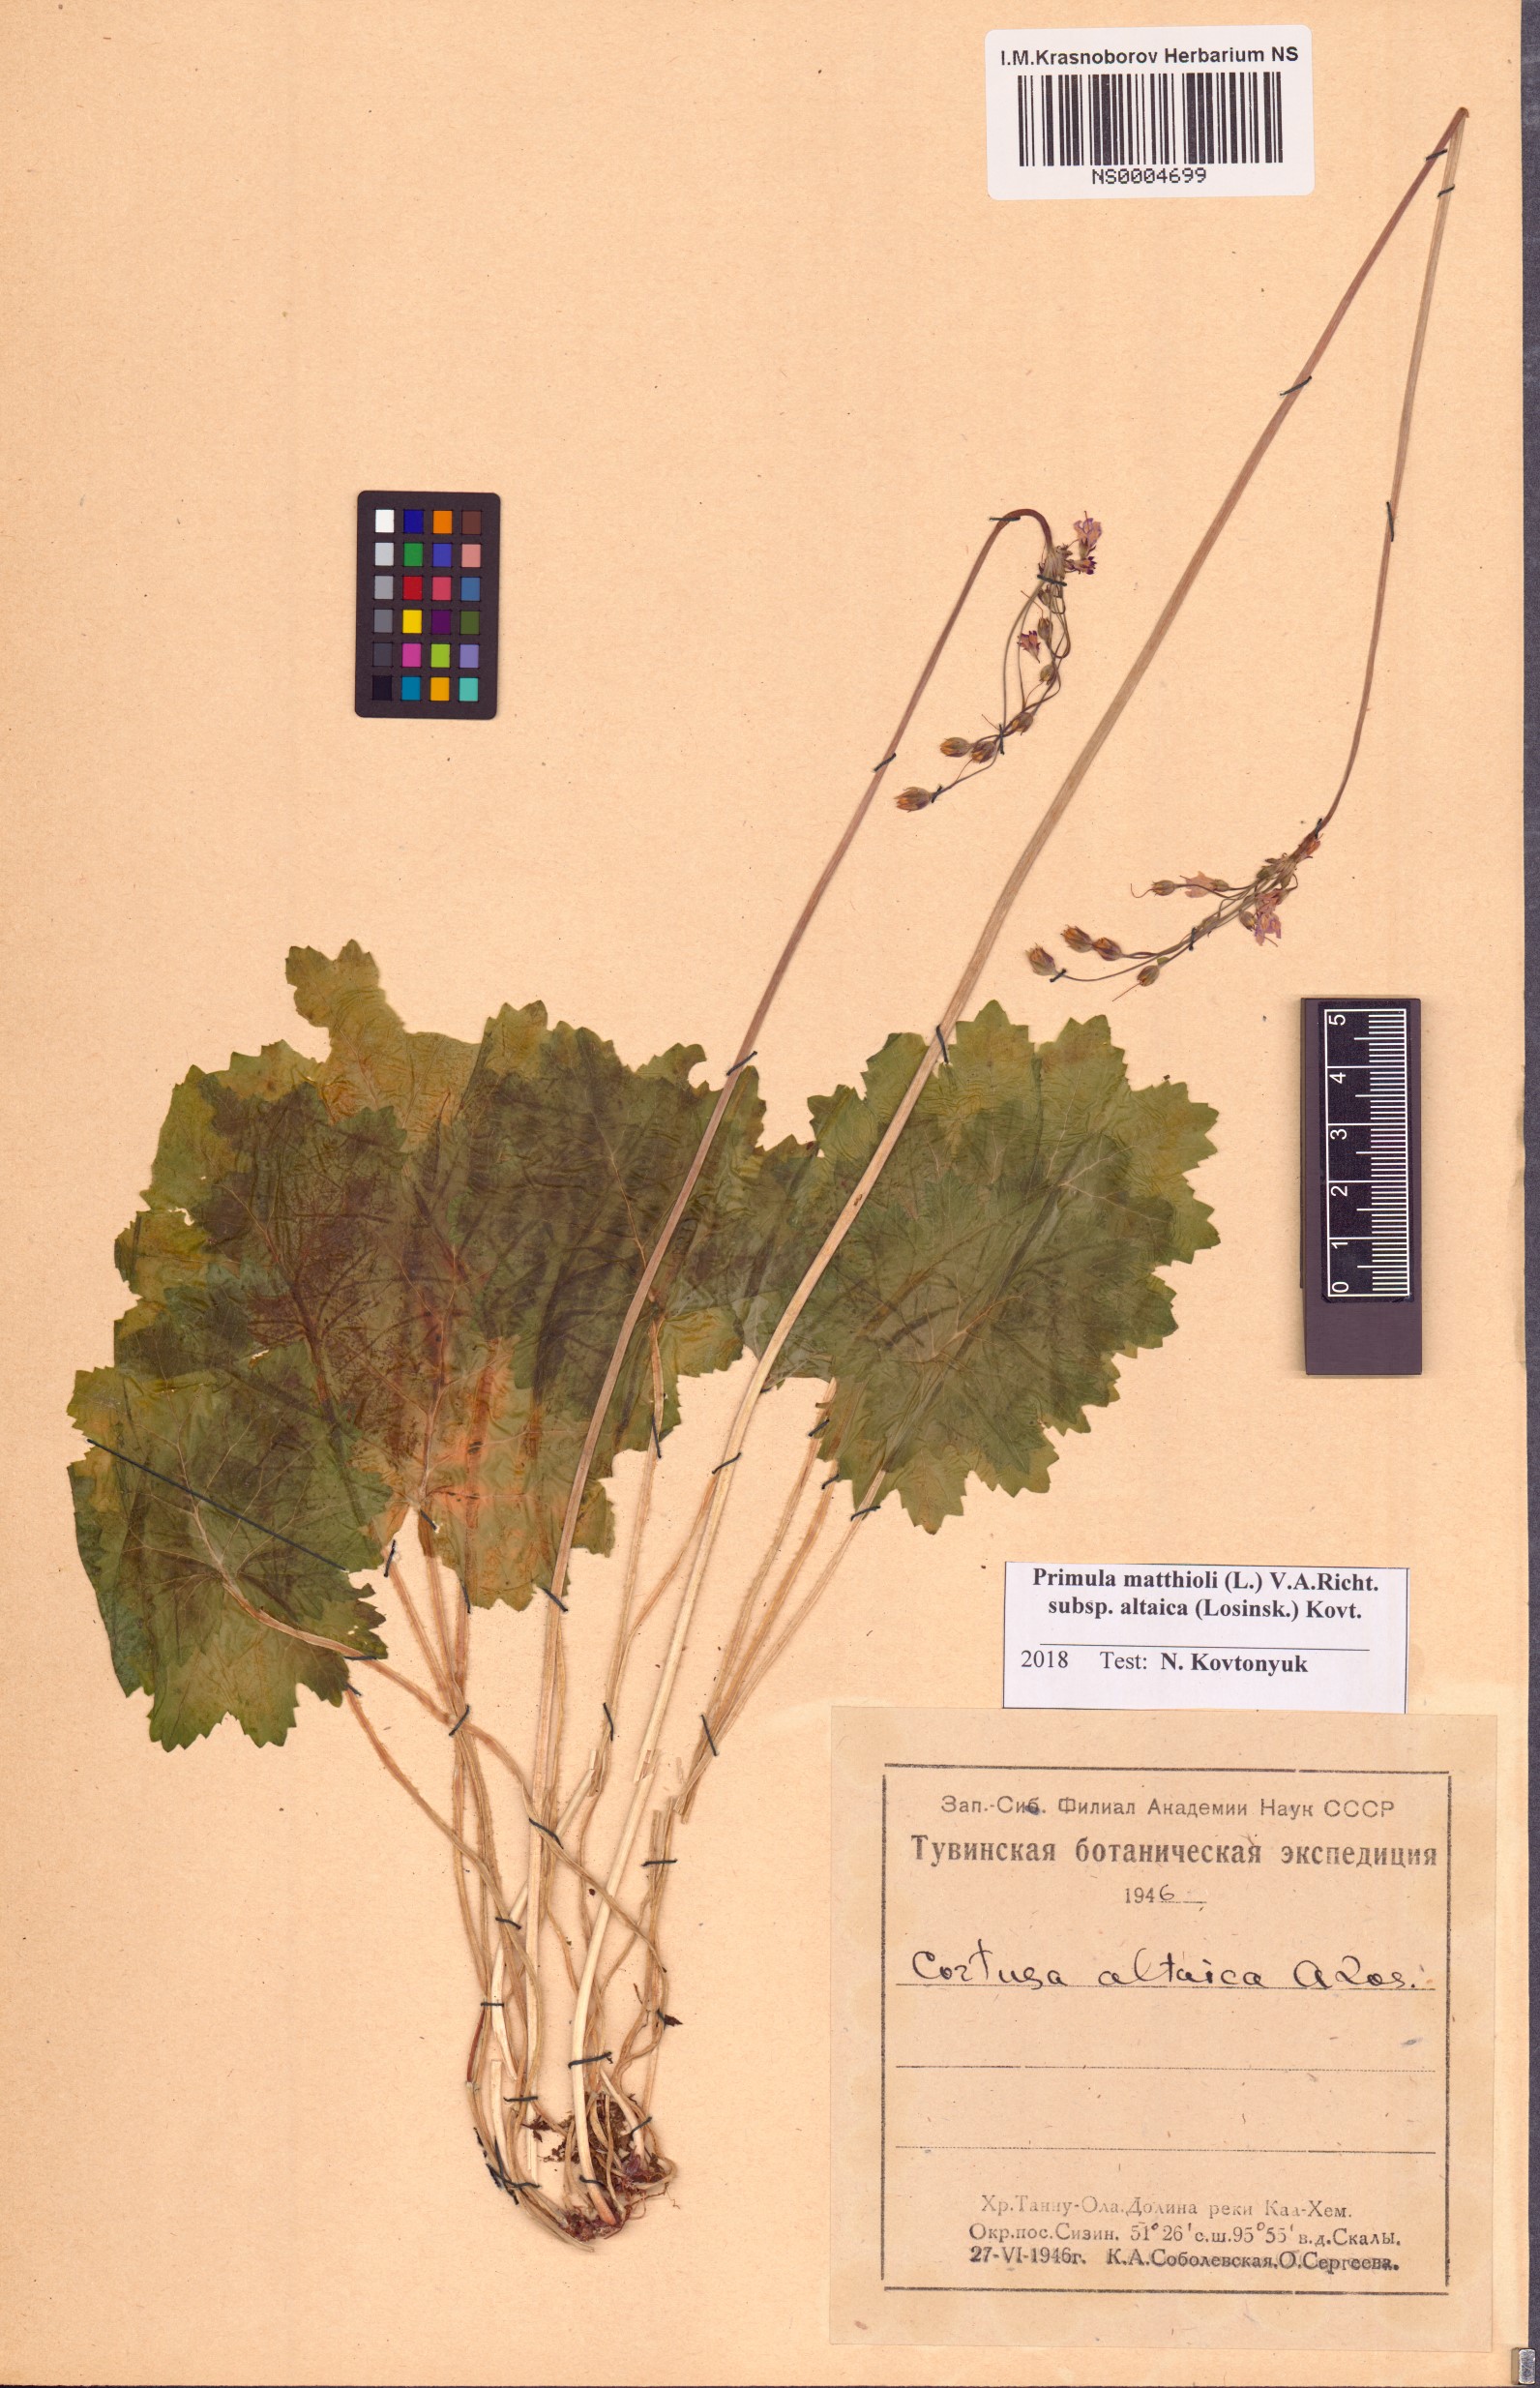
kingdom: Plantae
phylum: Tracheophyta
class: Magnoliopsida
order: Ericales
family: Primulaceae
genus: Primula
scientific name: Primula matthioli
